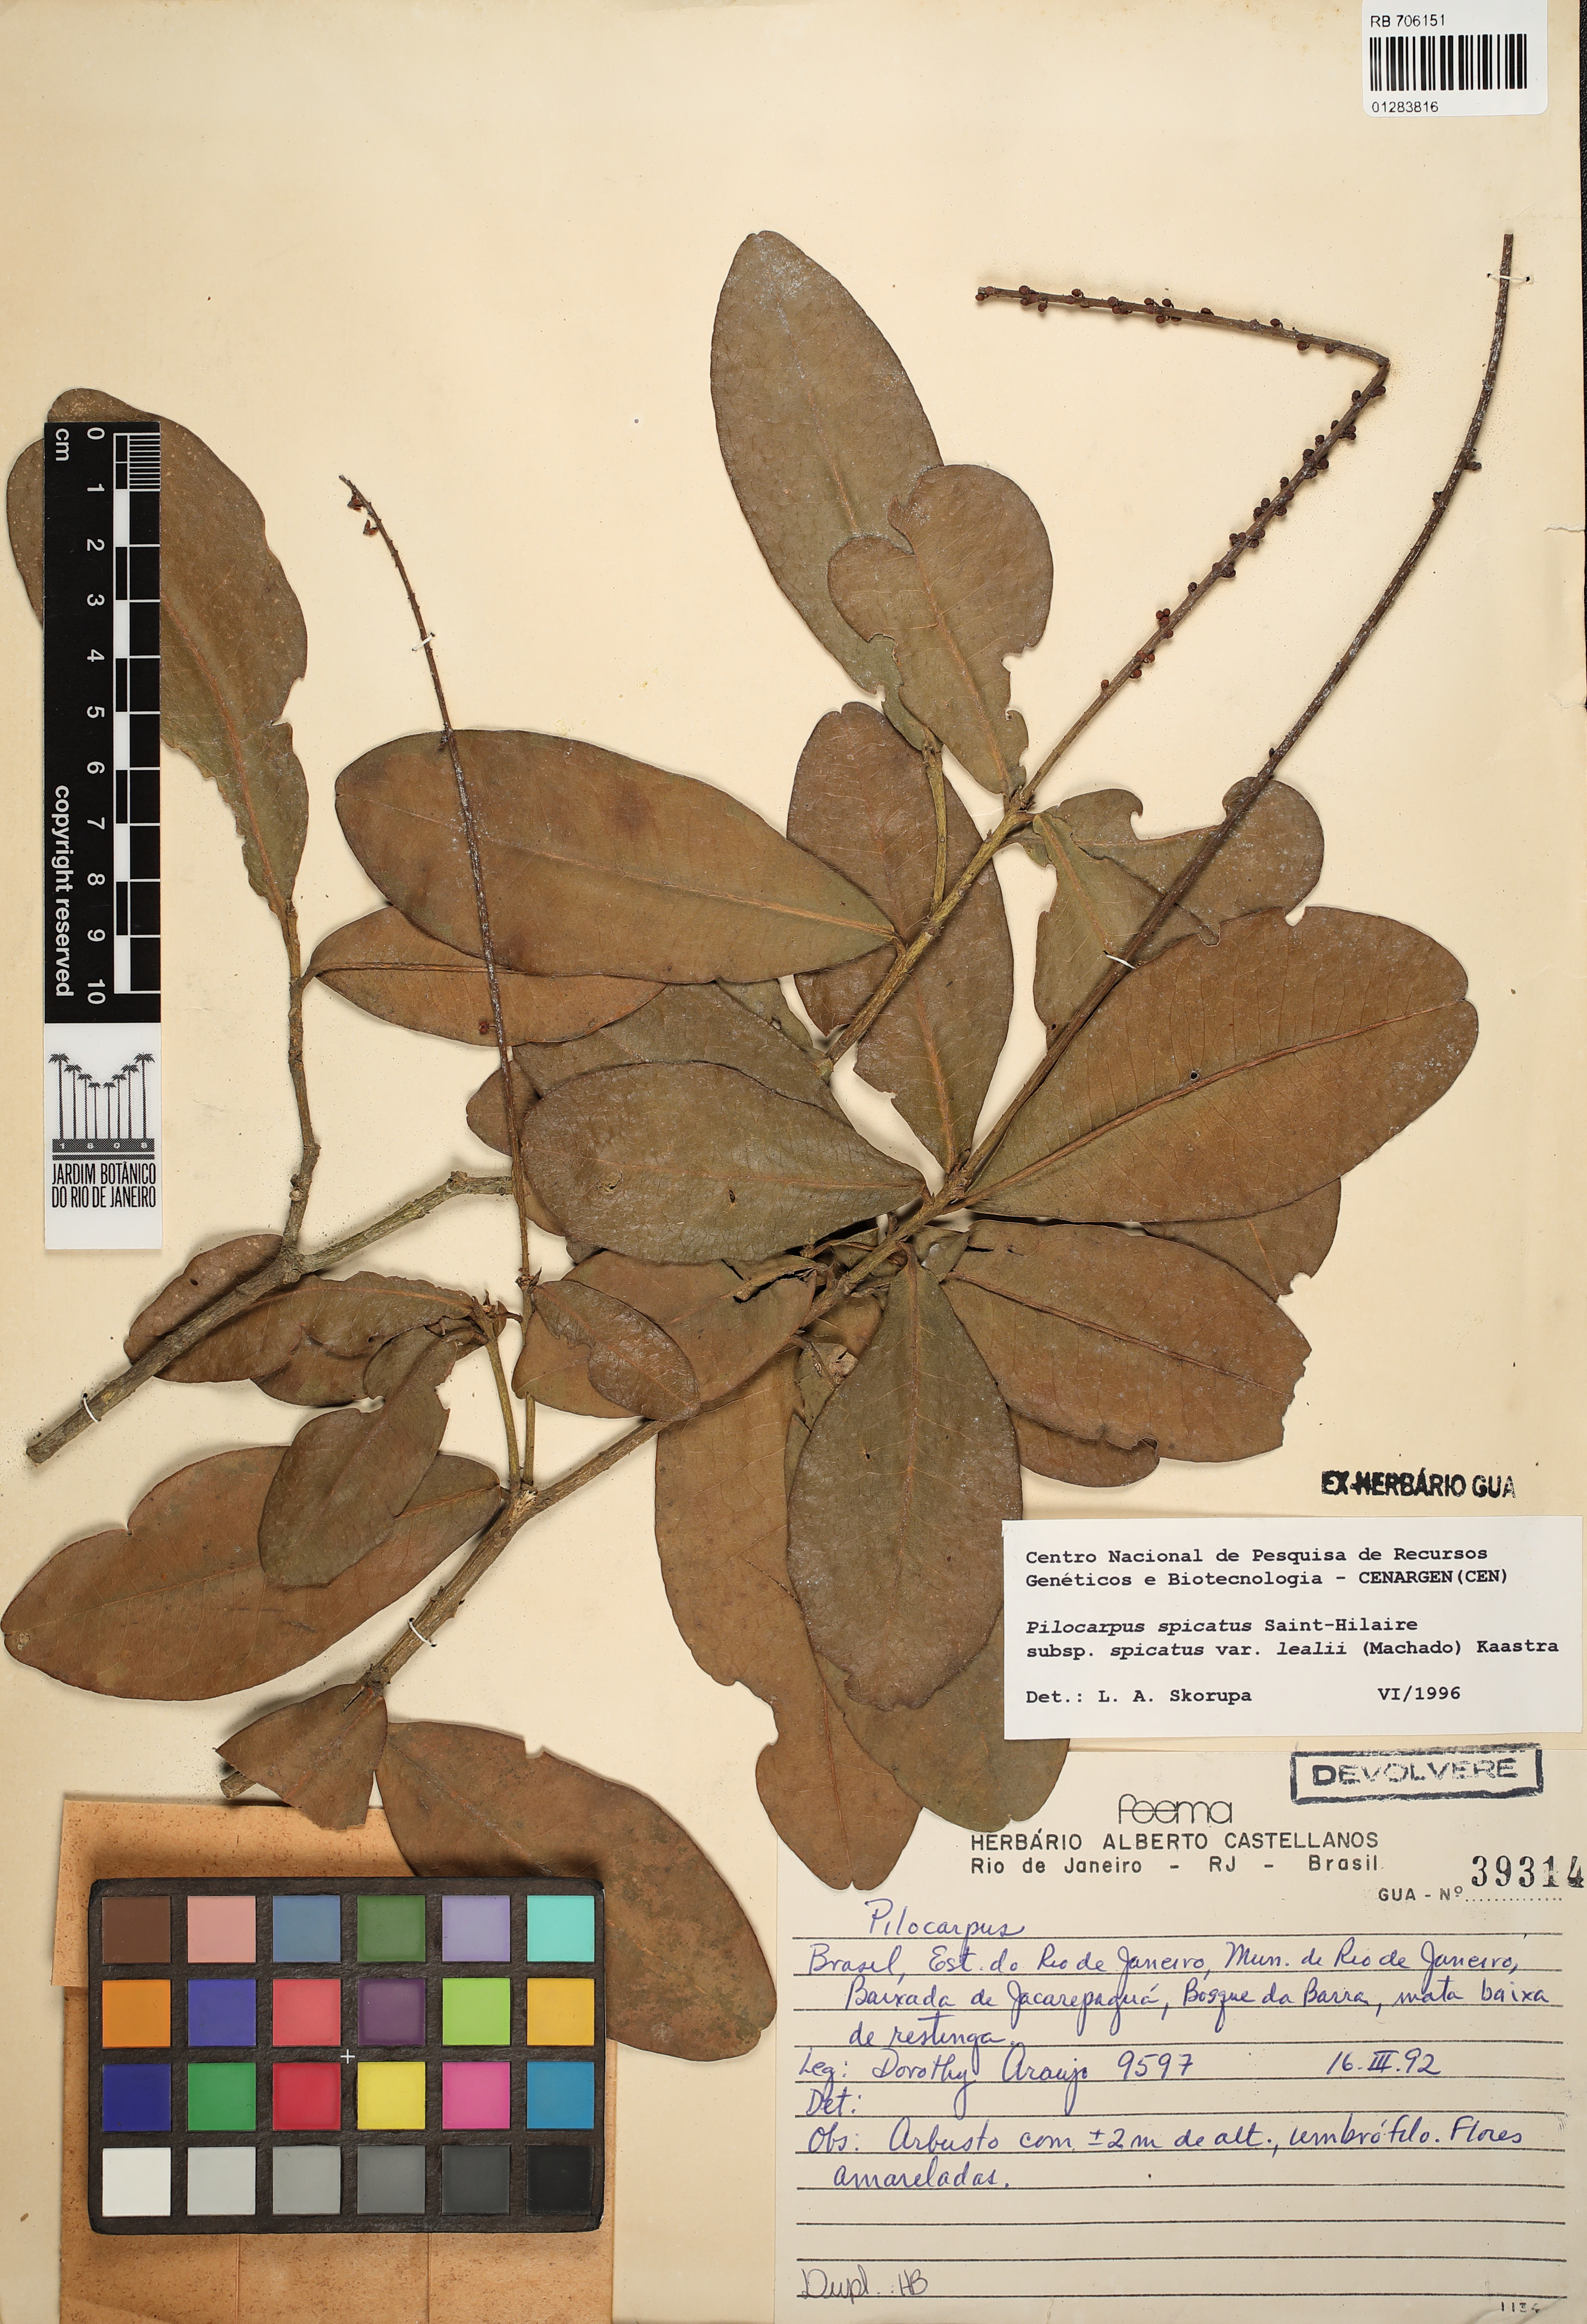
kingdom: Plantae
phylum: Tracheophyta
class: Magnoliopsida
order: Sapindales
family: Rutaceae
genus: Pilocarpus
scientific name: Pilocarpus spicatus
